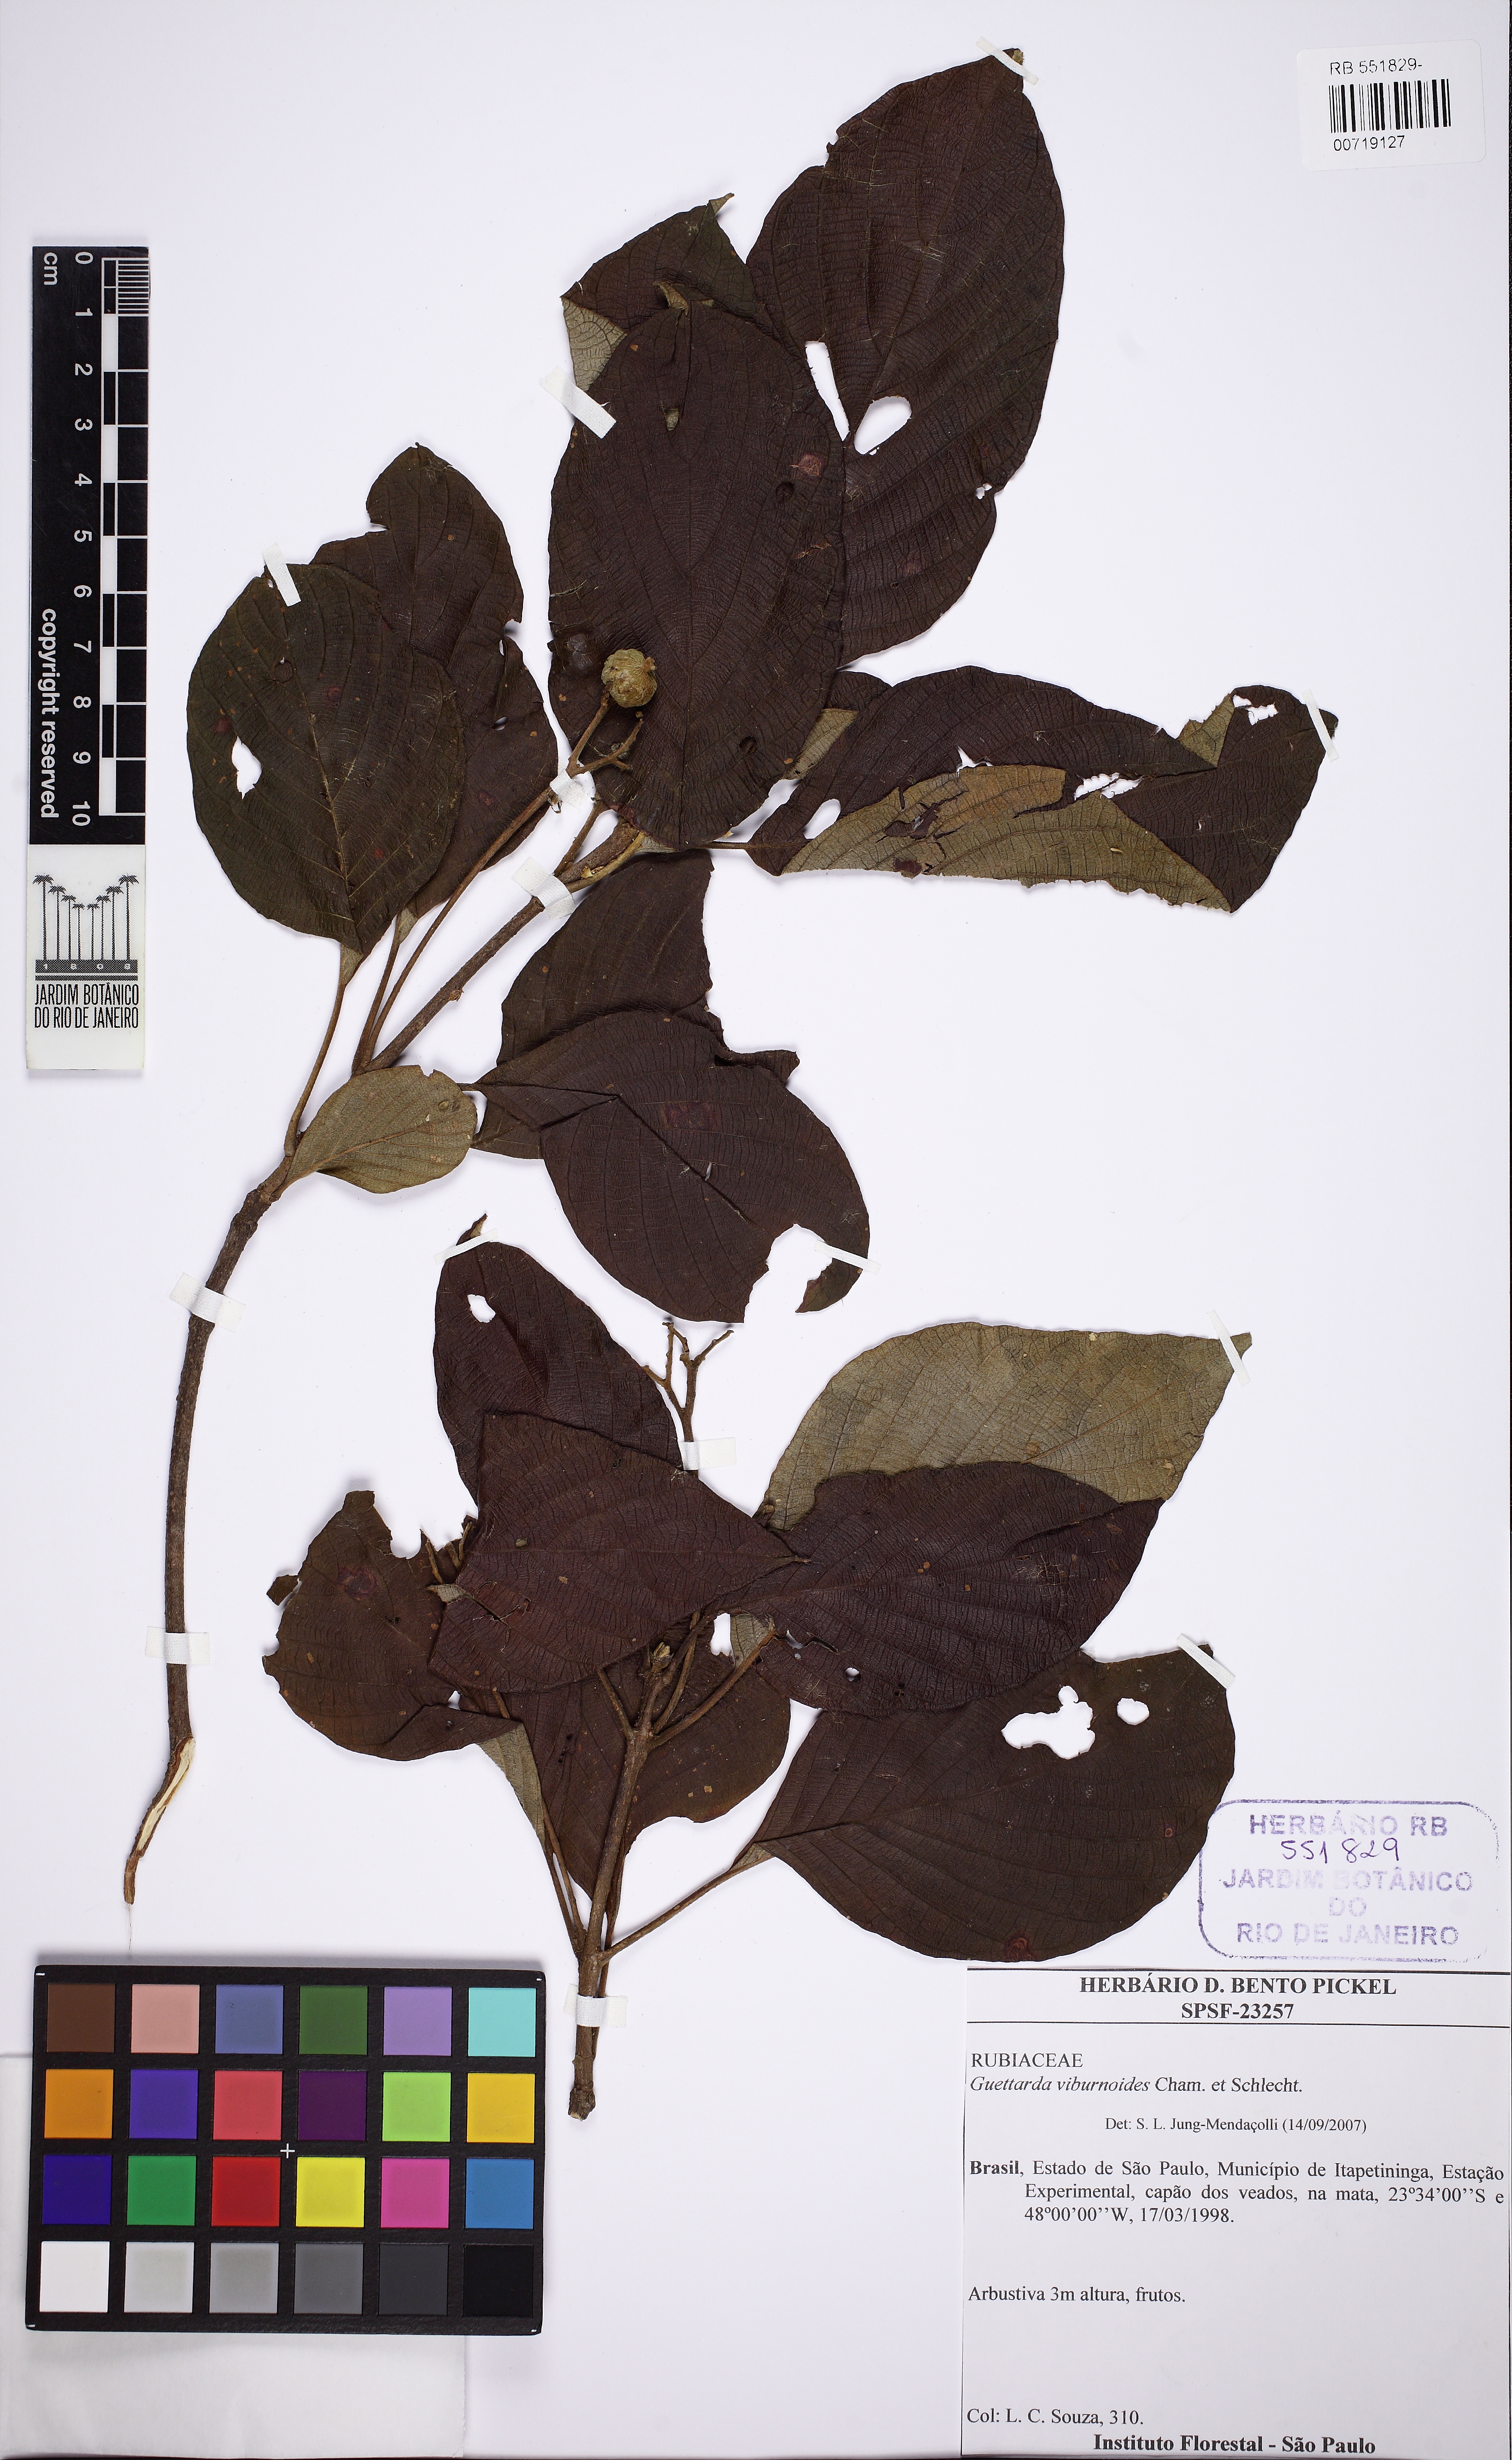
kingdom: Plantae
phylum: Tracheophyta
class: Magnoliopsida
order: Gentianales
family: Rubiaceae
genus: Guettarda
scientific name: Guettarda viburnoides
